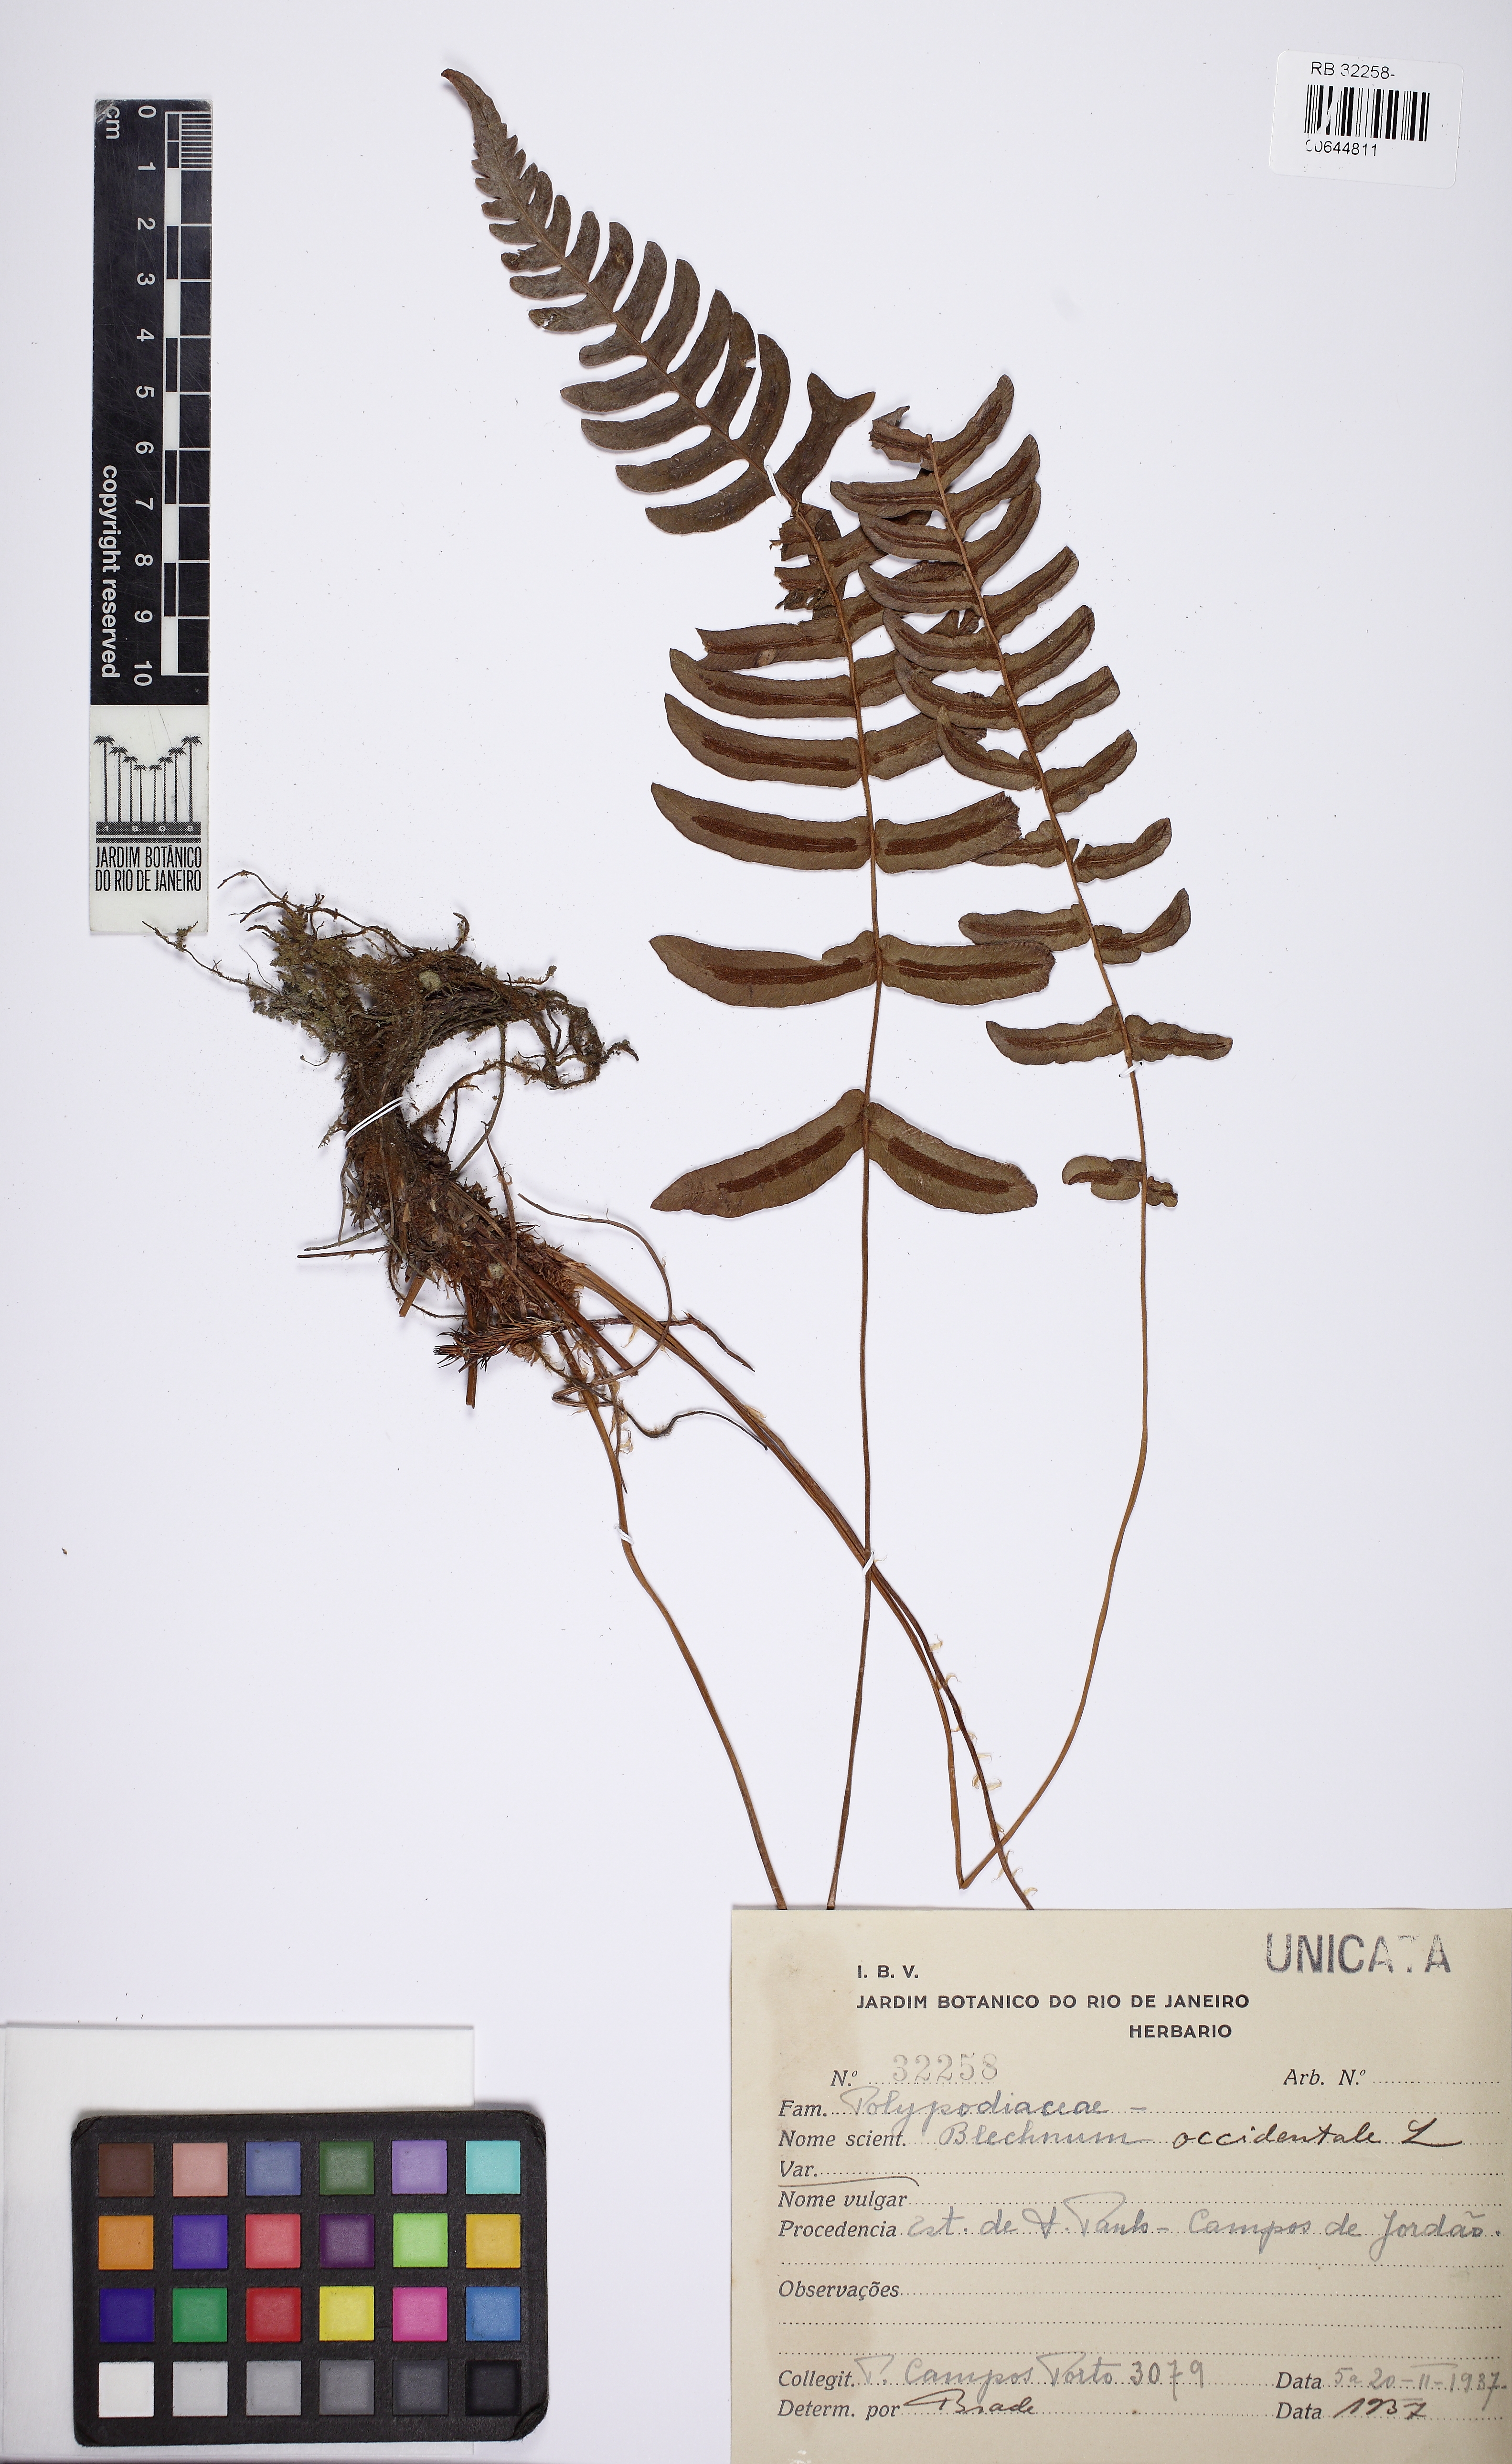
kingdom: Plantae
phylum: Tracheophyta
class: Polypodiopsida
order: Polypodiales
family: Blechnaceae
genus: Blechnum
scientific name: Blechnum occidentale
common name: Hammock fern
